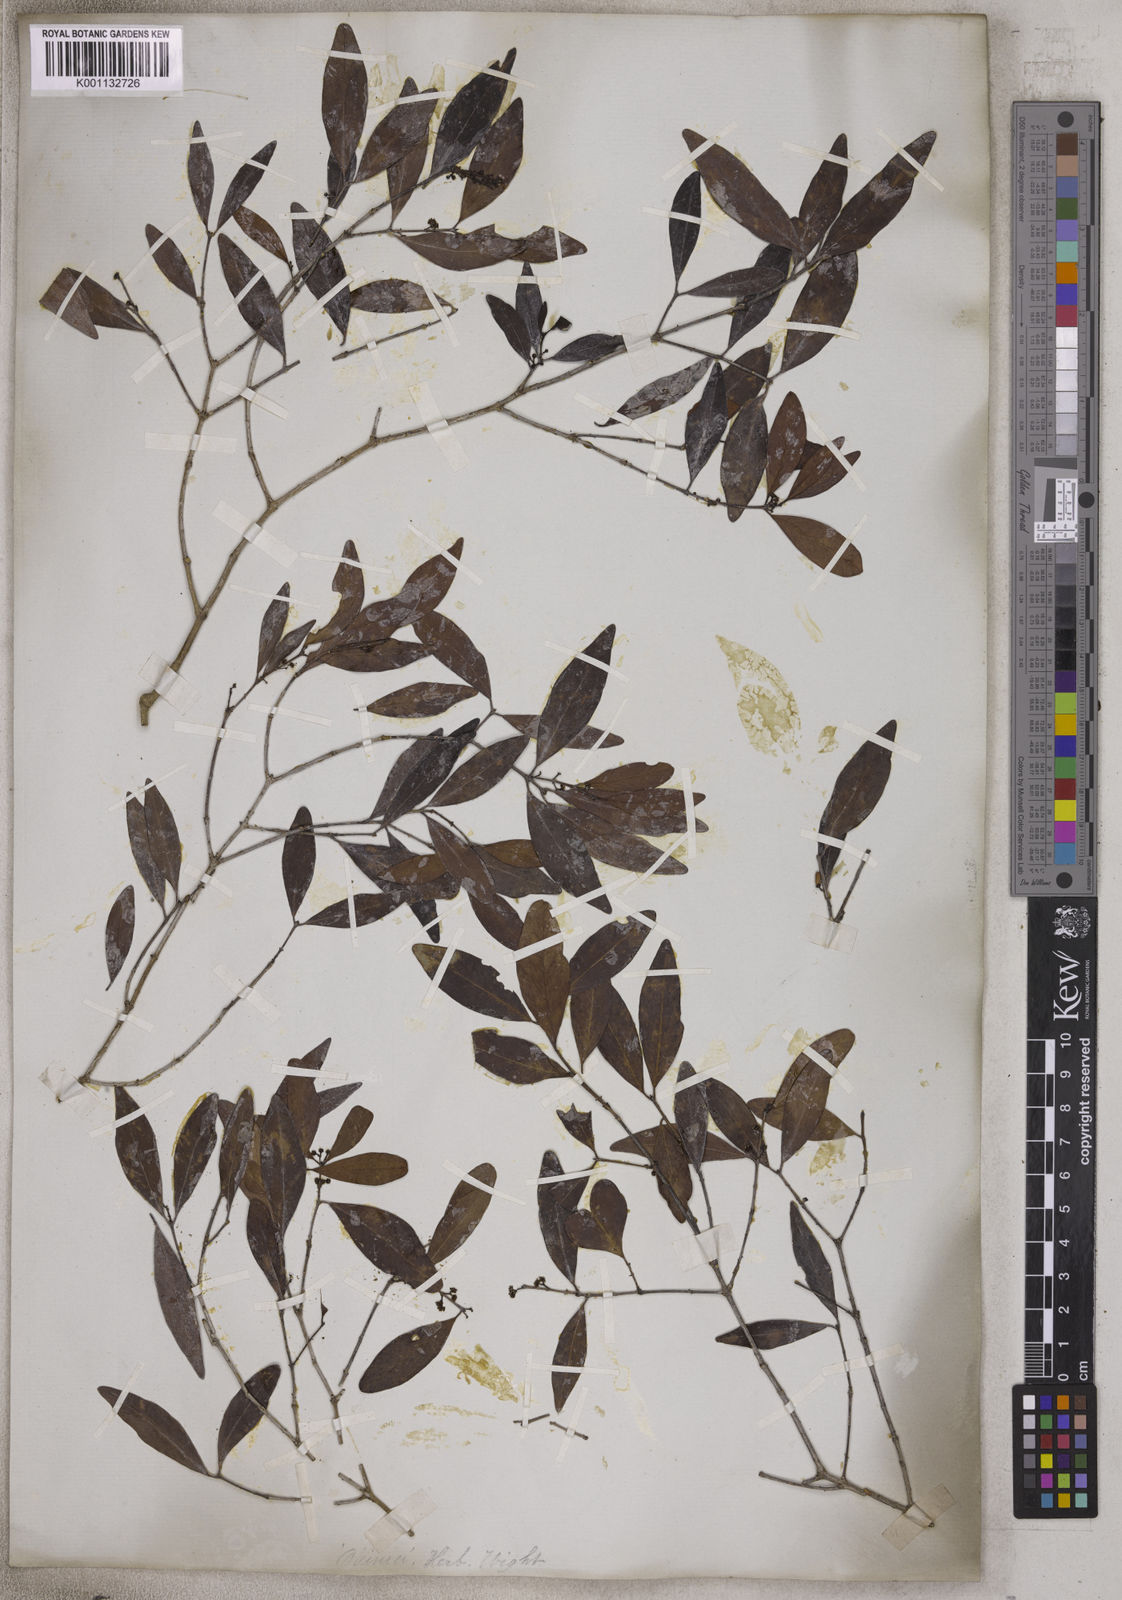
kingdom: Plantae
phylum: Tracheophyta
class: Magnoliopsida
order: Asterales
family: Asteraceae
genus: Olearia
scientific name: Olearia
